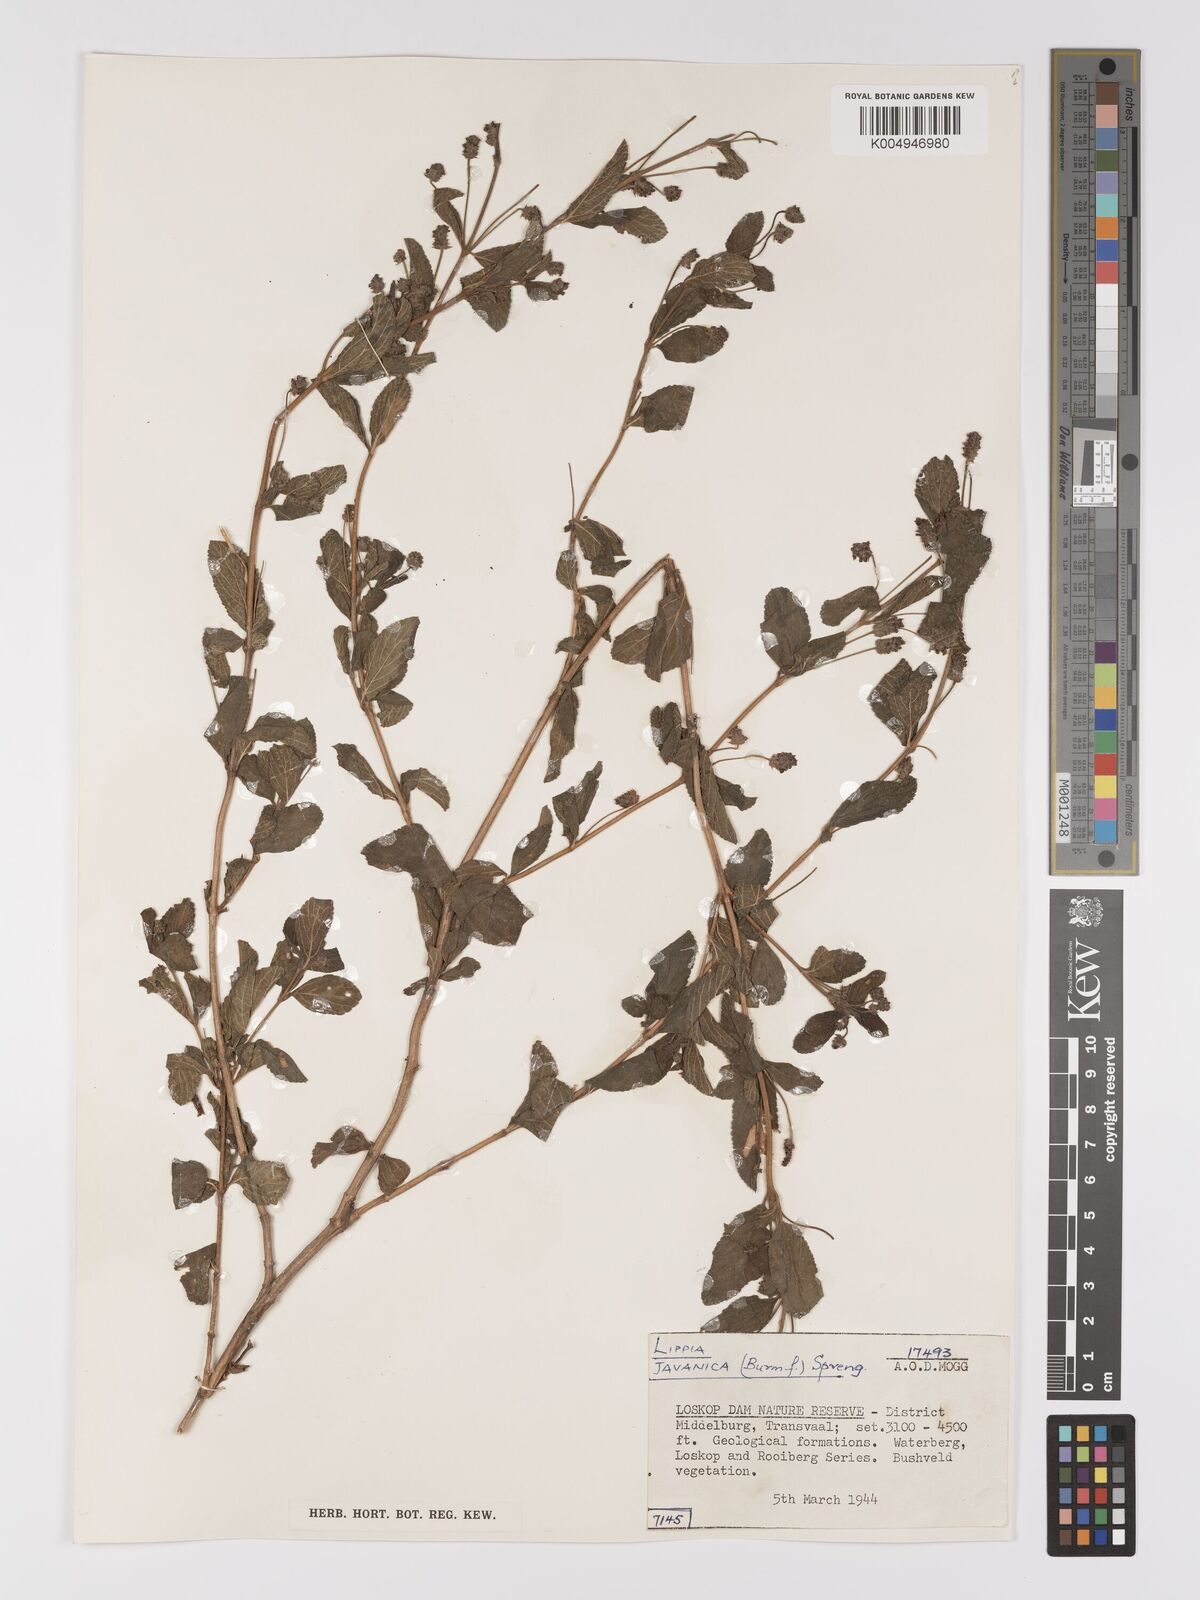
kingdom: Plantae
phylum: Tracheophyta
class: Magnoliopsida
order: Lamiales
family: Verbenaceae
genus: Lippia
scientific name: Lippia javanica
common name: Lemonbush
